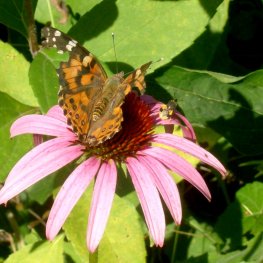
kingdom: Animalia
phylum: Arthropoda
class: Insecta
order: Lepidoptera
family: Nymphalidae
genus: Vanessa
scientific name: Vanessa cardui
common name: Painted Lady
